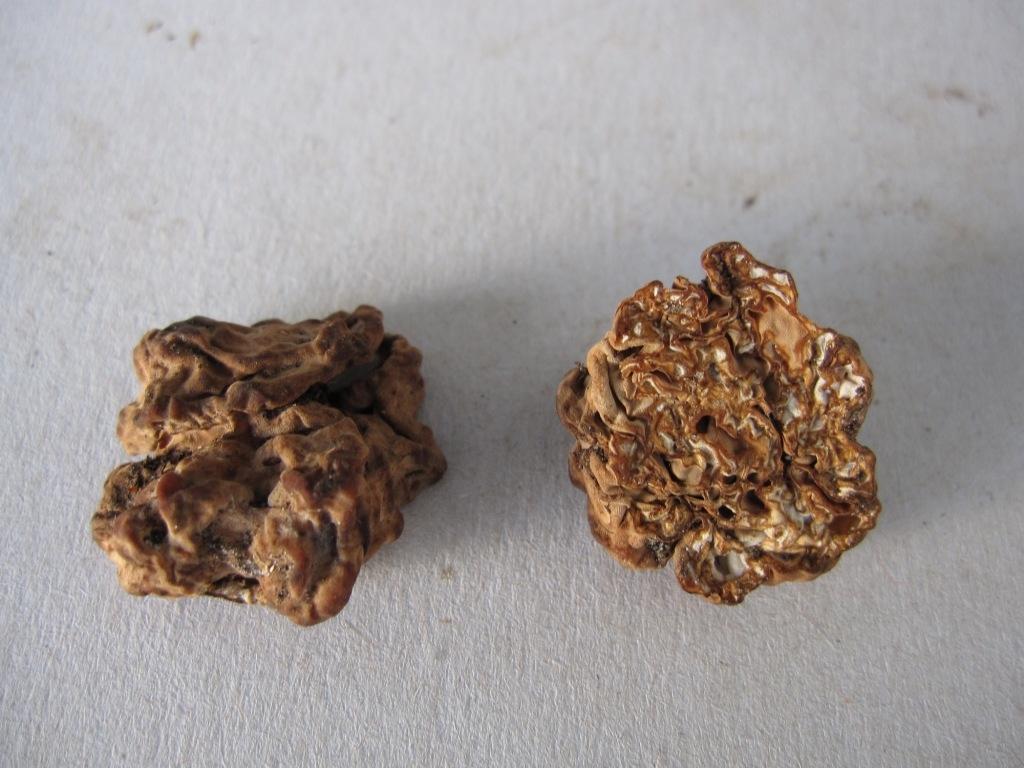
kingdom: Fungi
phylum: Ascomycota
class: Pezizomycetes
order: Pezizales
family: Discinaceae
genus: Hydnotrya
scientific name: Hydnotrya tulasnei
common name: almindelig foldtrøffel
